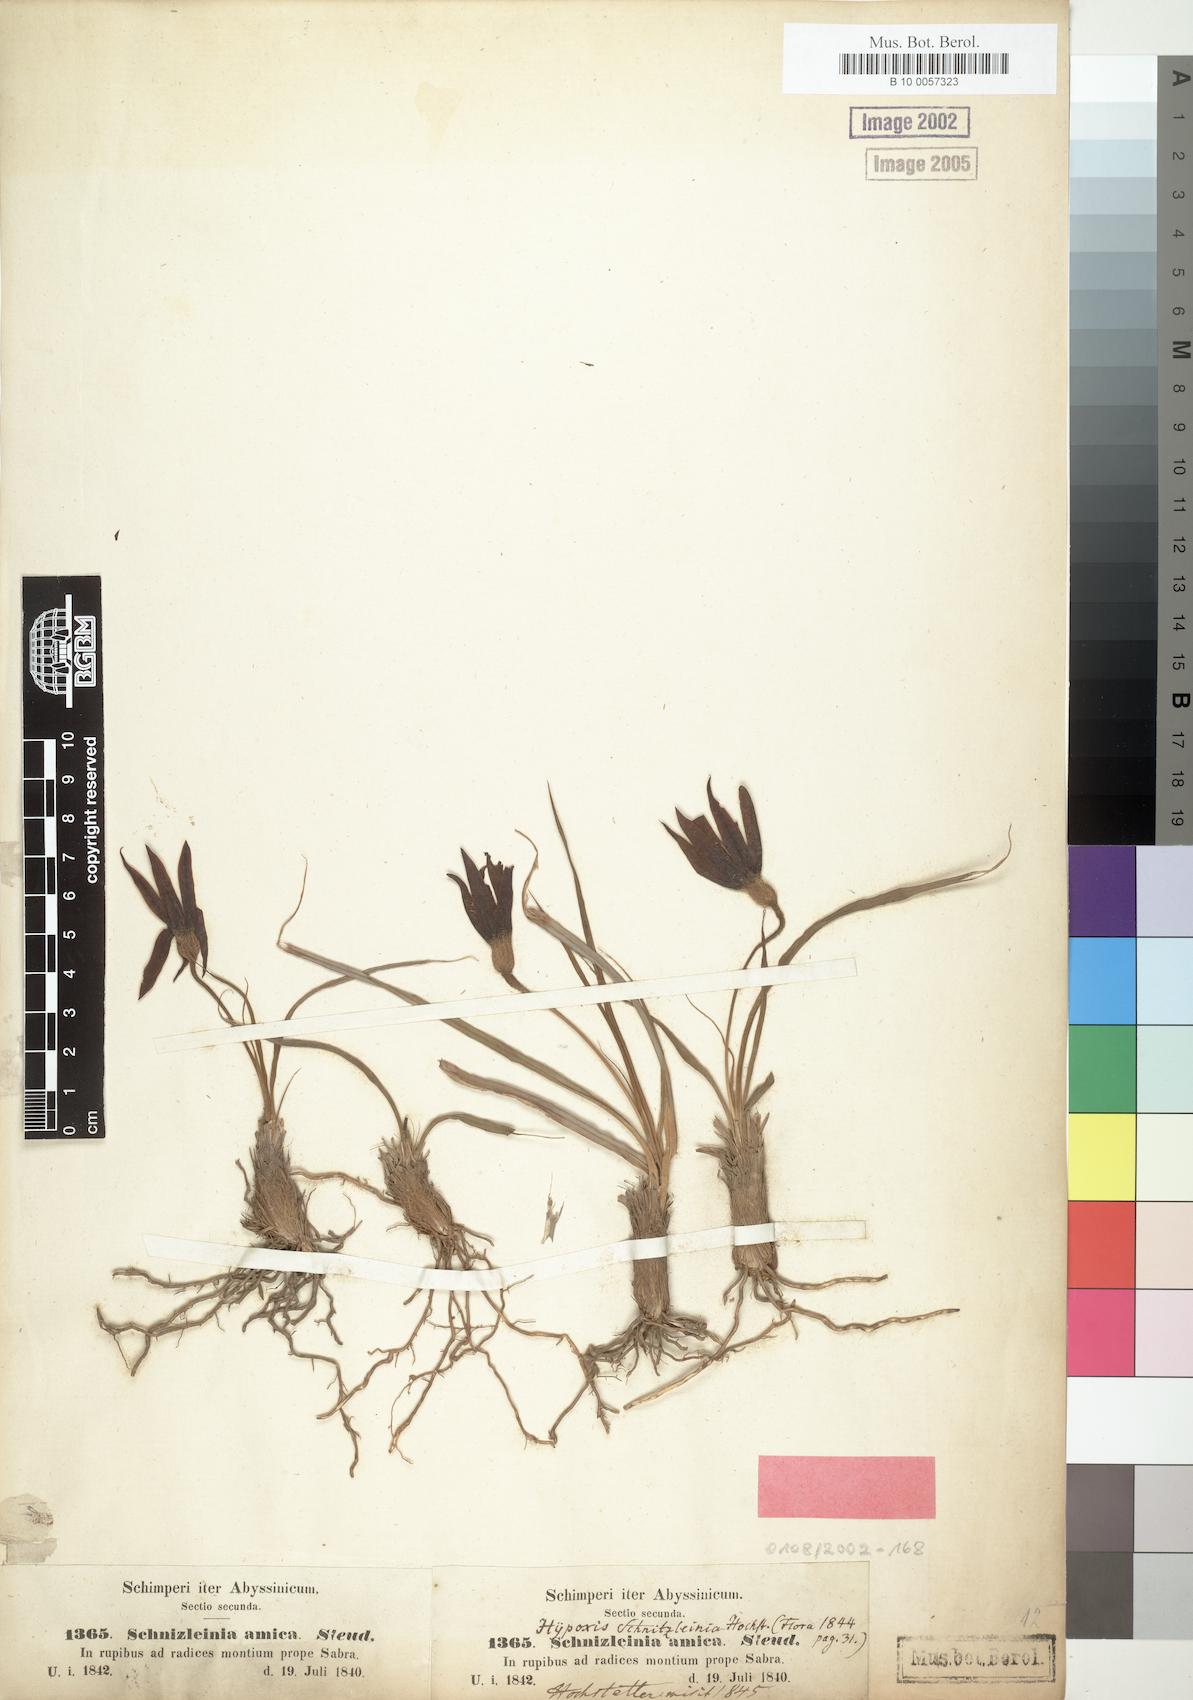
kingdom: Plantae
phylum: Tracheophyta
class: Liliopsida
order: Pandanales
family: Velloziaceae
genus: Xerophyta
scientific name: Xerophyta schnizleinia
